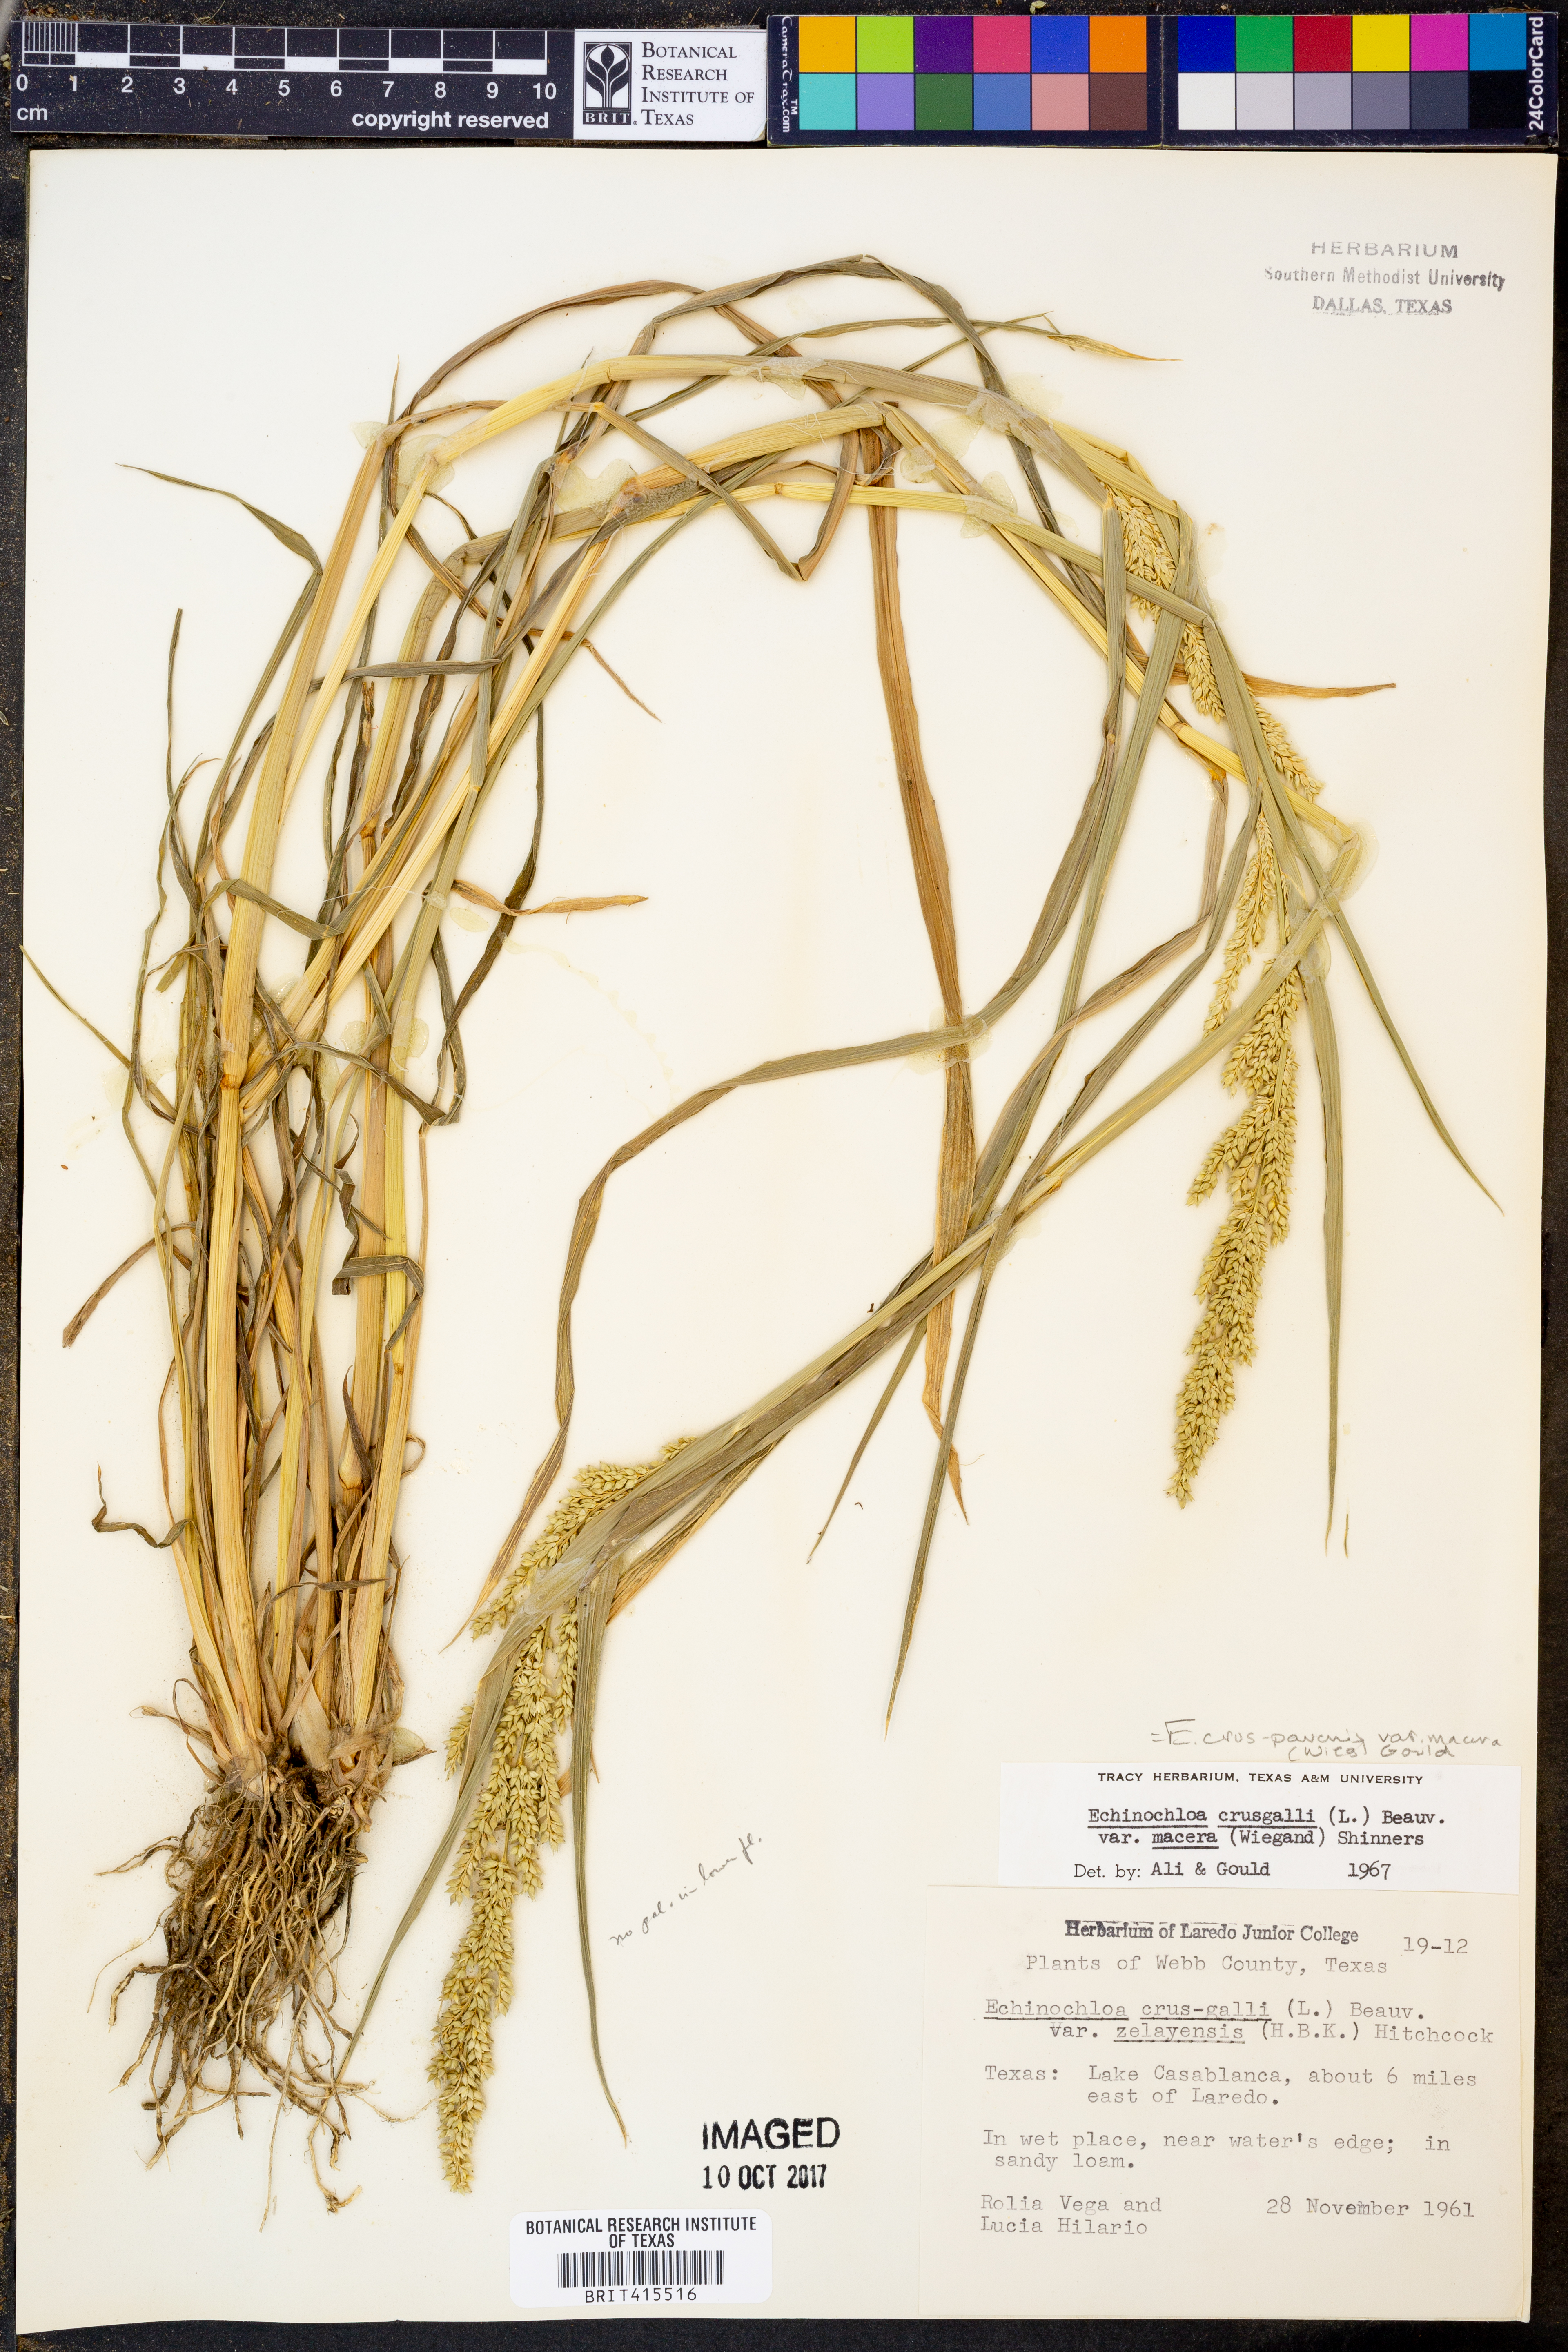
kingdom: Plantae
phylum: Tracheophyta
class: Liliopsida
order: Poales
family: Poaceae
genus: Echinochloa
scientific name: Echinochloa crus-pavonis
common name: Gulf cockspur grass
